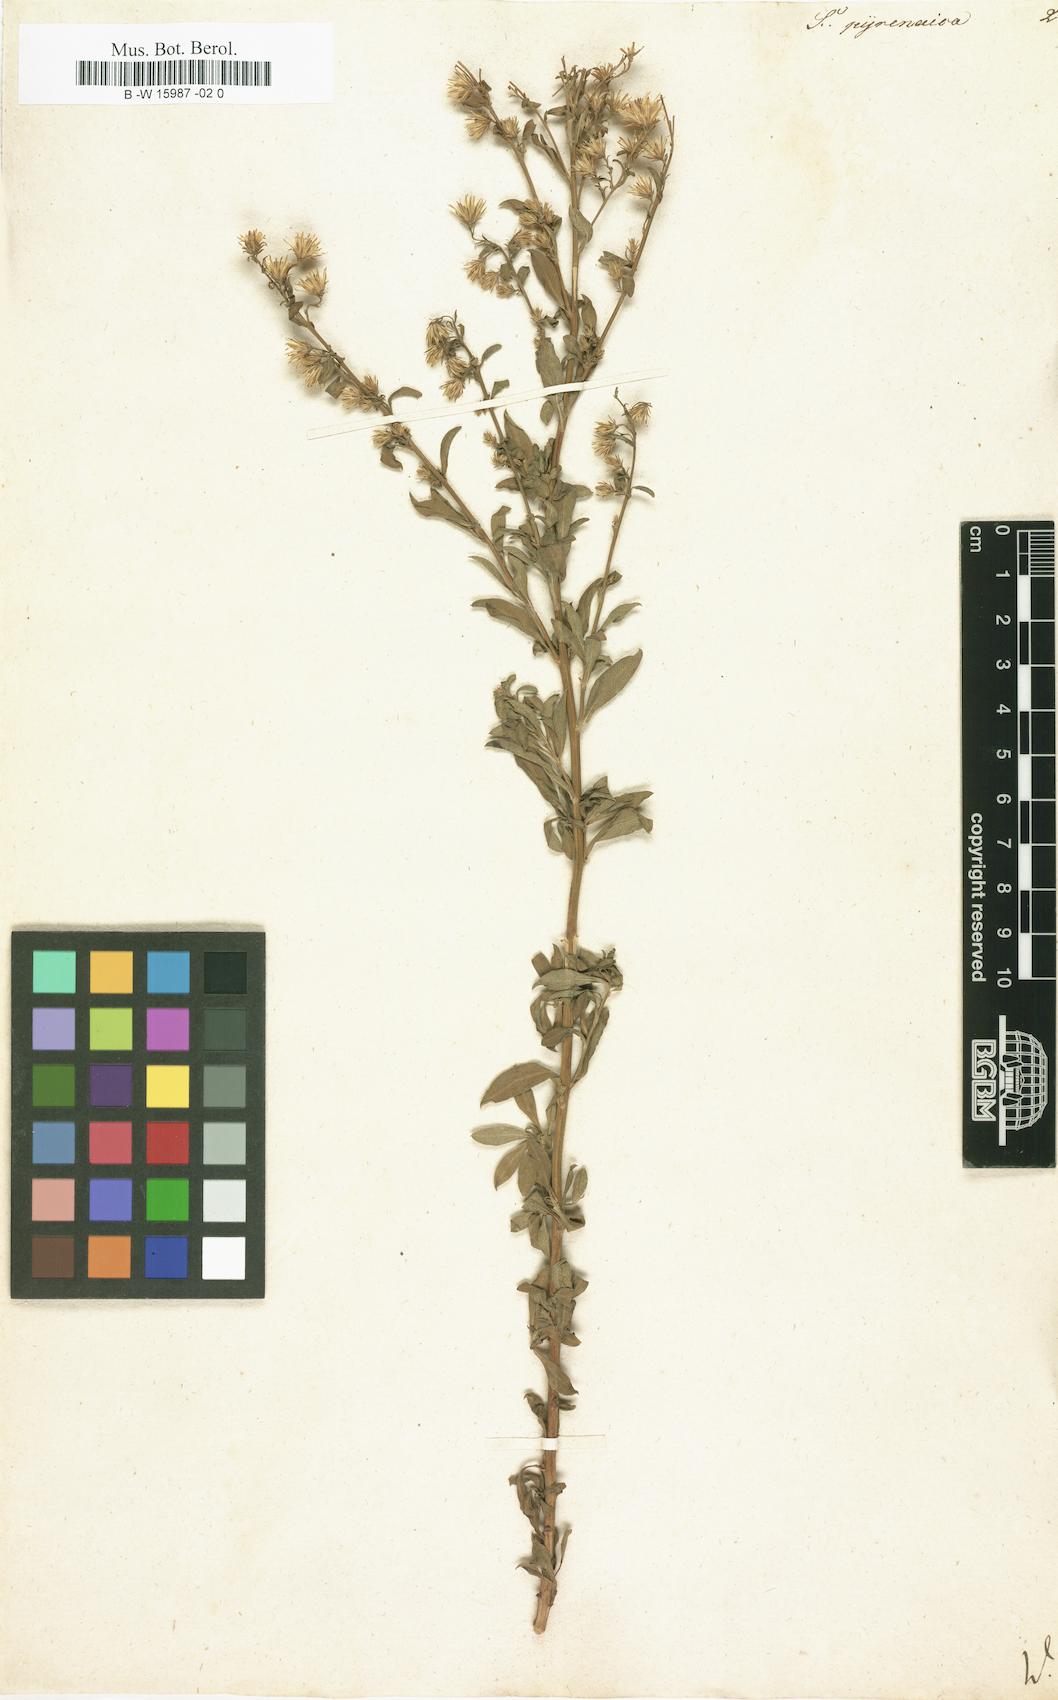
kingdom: Plantae
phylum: Tracheophyta
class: Magnoliopsida
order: Asterales
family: Asteraceae
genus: Solidago
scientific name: Solidago
